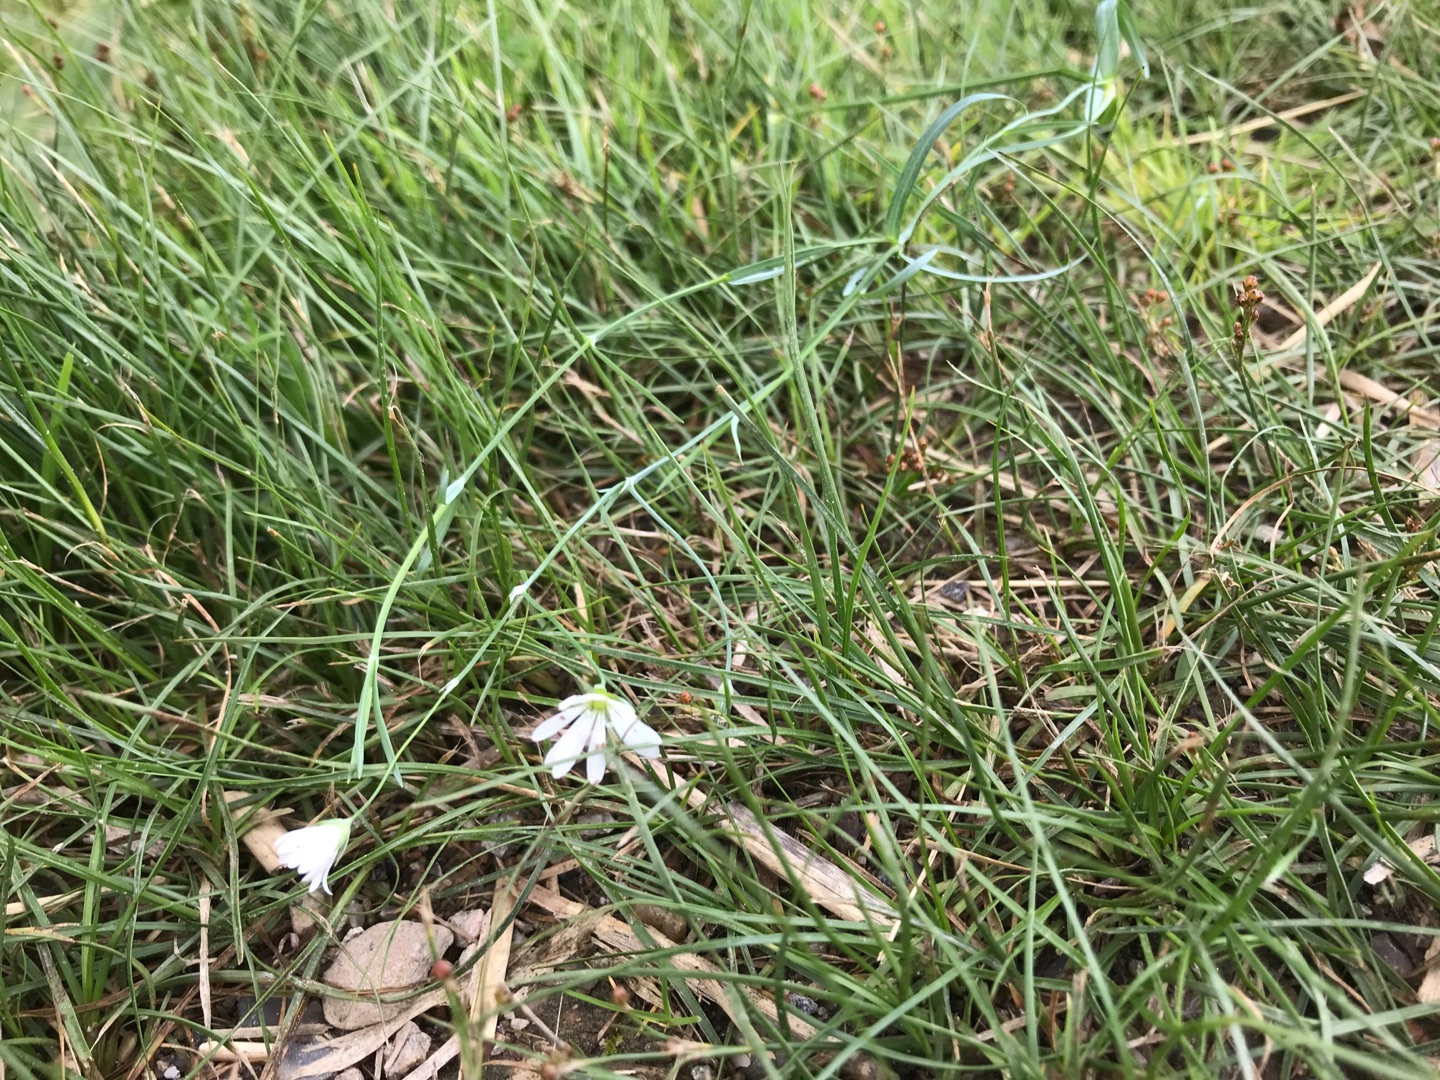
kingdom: Plantae
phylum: Tracheophyta
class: Magnoliopsida
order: Caryophyllales
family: Caryophyllaceae
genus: Stellaria
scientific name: Stellaria palustris
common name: Kær-fladstjerne
